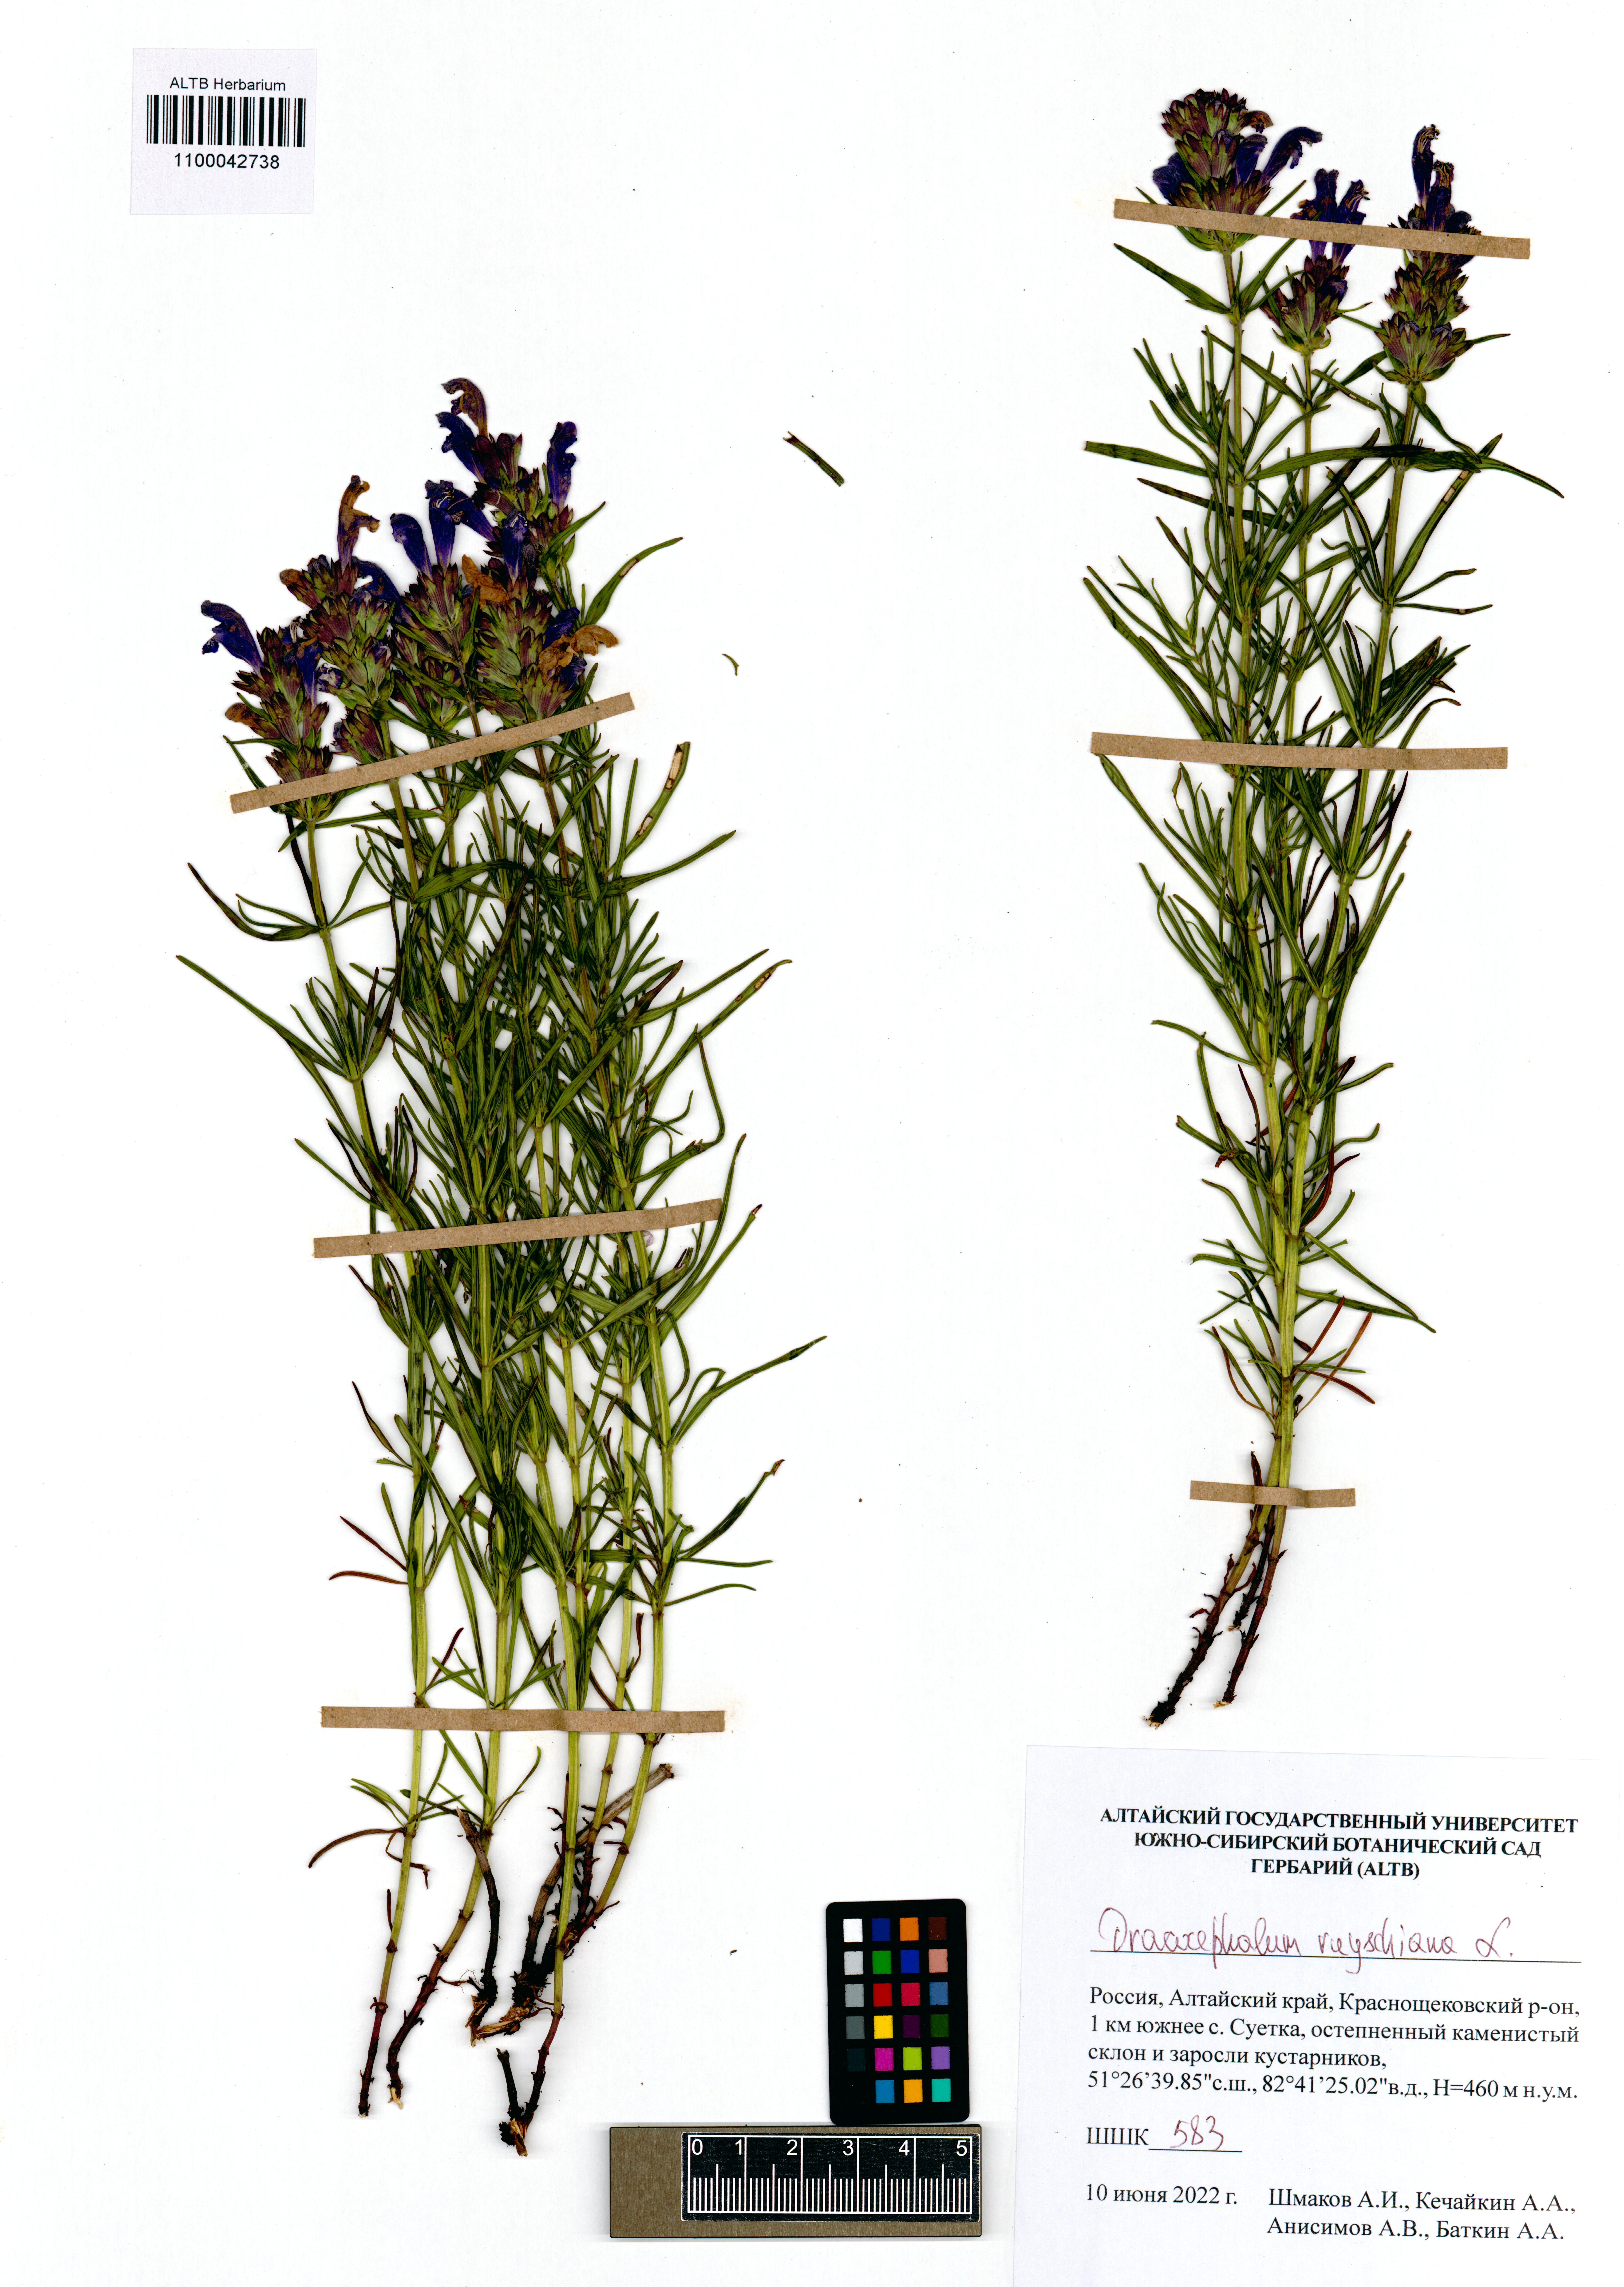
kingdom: Plantae
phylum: Tracheophyta
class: Magnoliopsida
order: Lamiales
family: Lamiaceae
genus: Dracocephalum
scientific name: Dracocephalum ruyschiana
